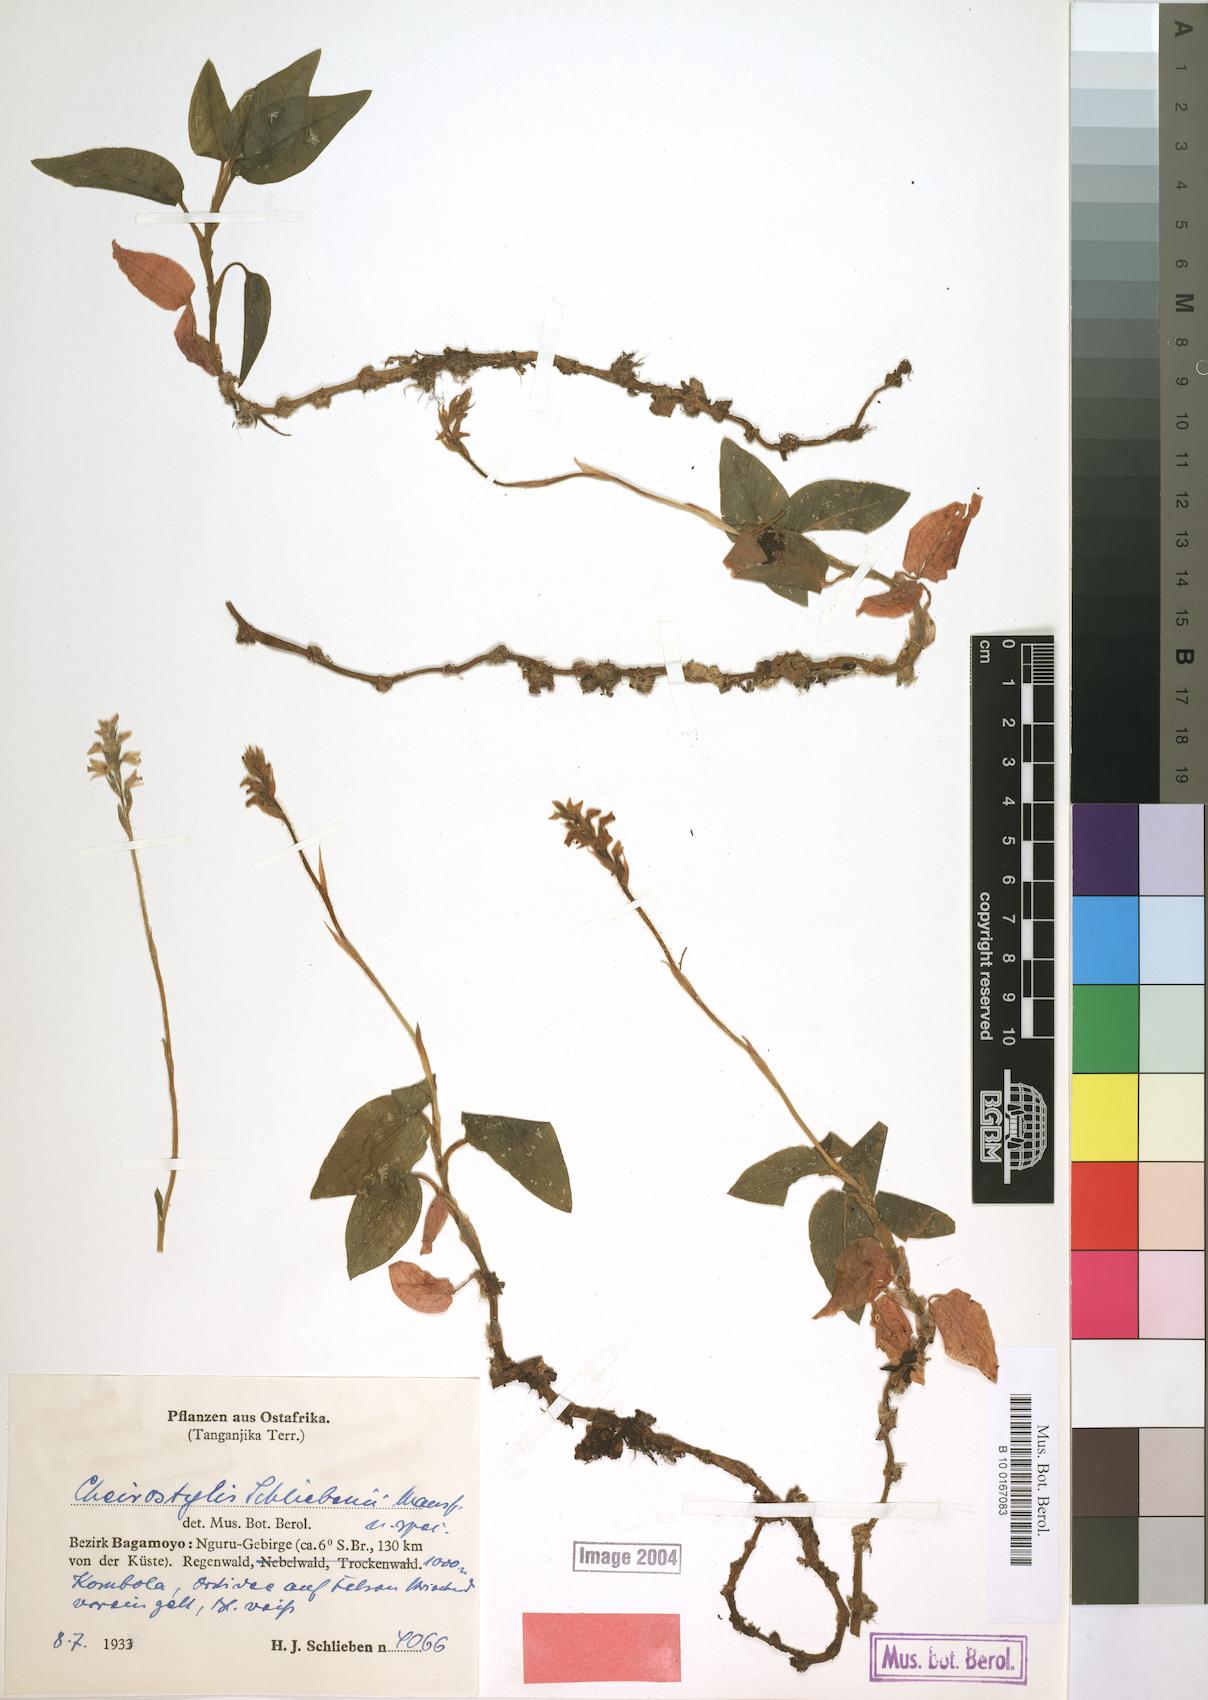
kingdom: Plantae
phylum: Tracheophyta
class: Liliopsida
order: Asparagales
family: Orchidaceae
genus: Zeuxine
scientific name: Zeuxine lunulata
